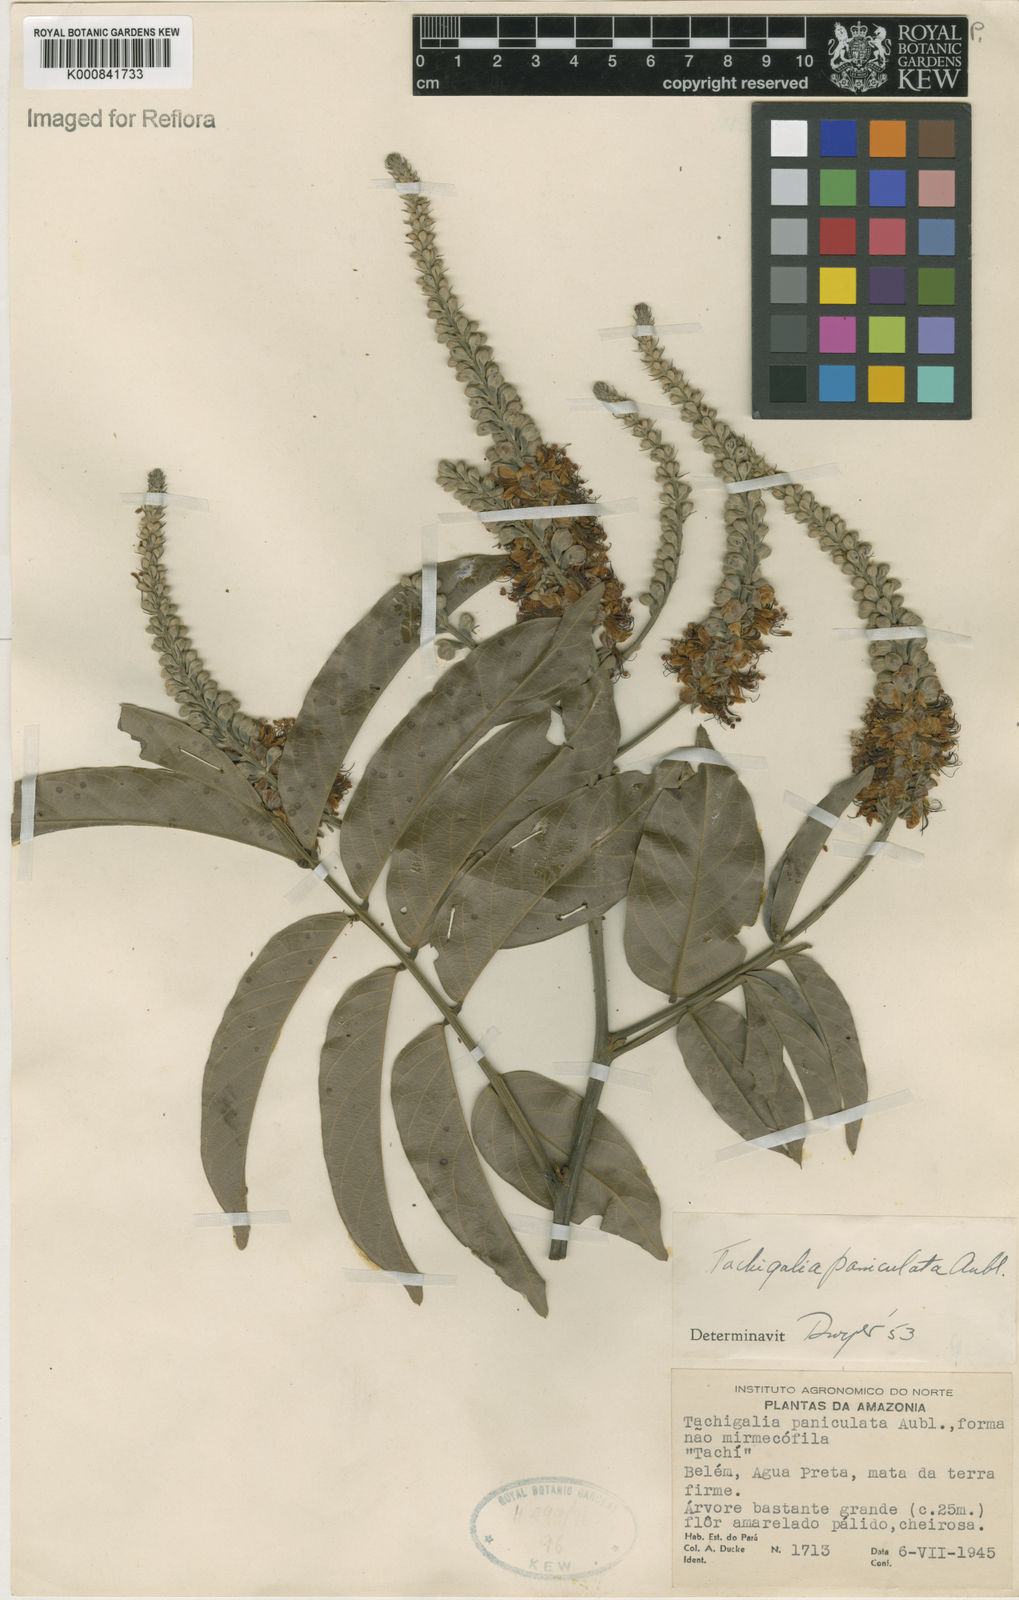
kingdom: Plantae
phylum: Tracheophyta
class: Magnoliopsida
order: Fabales
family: Fabaceae
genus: Tachigali
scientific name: Tachigali paniculata
